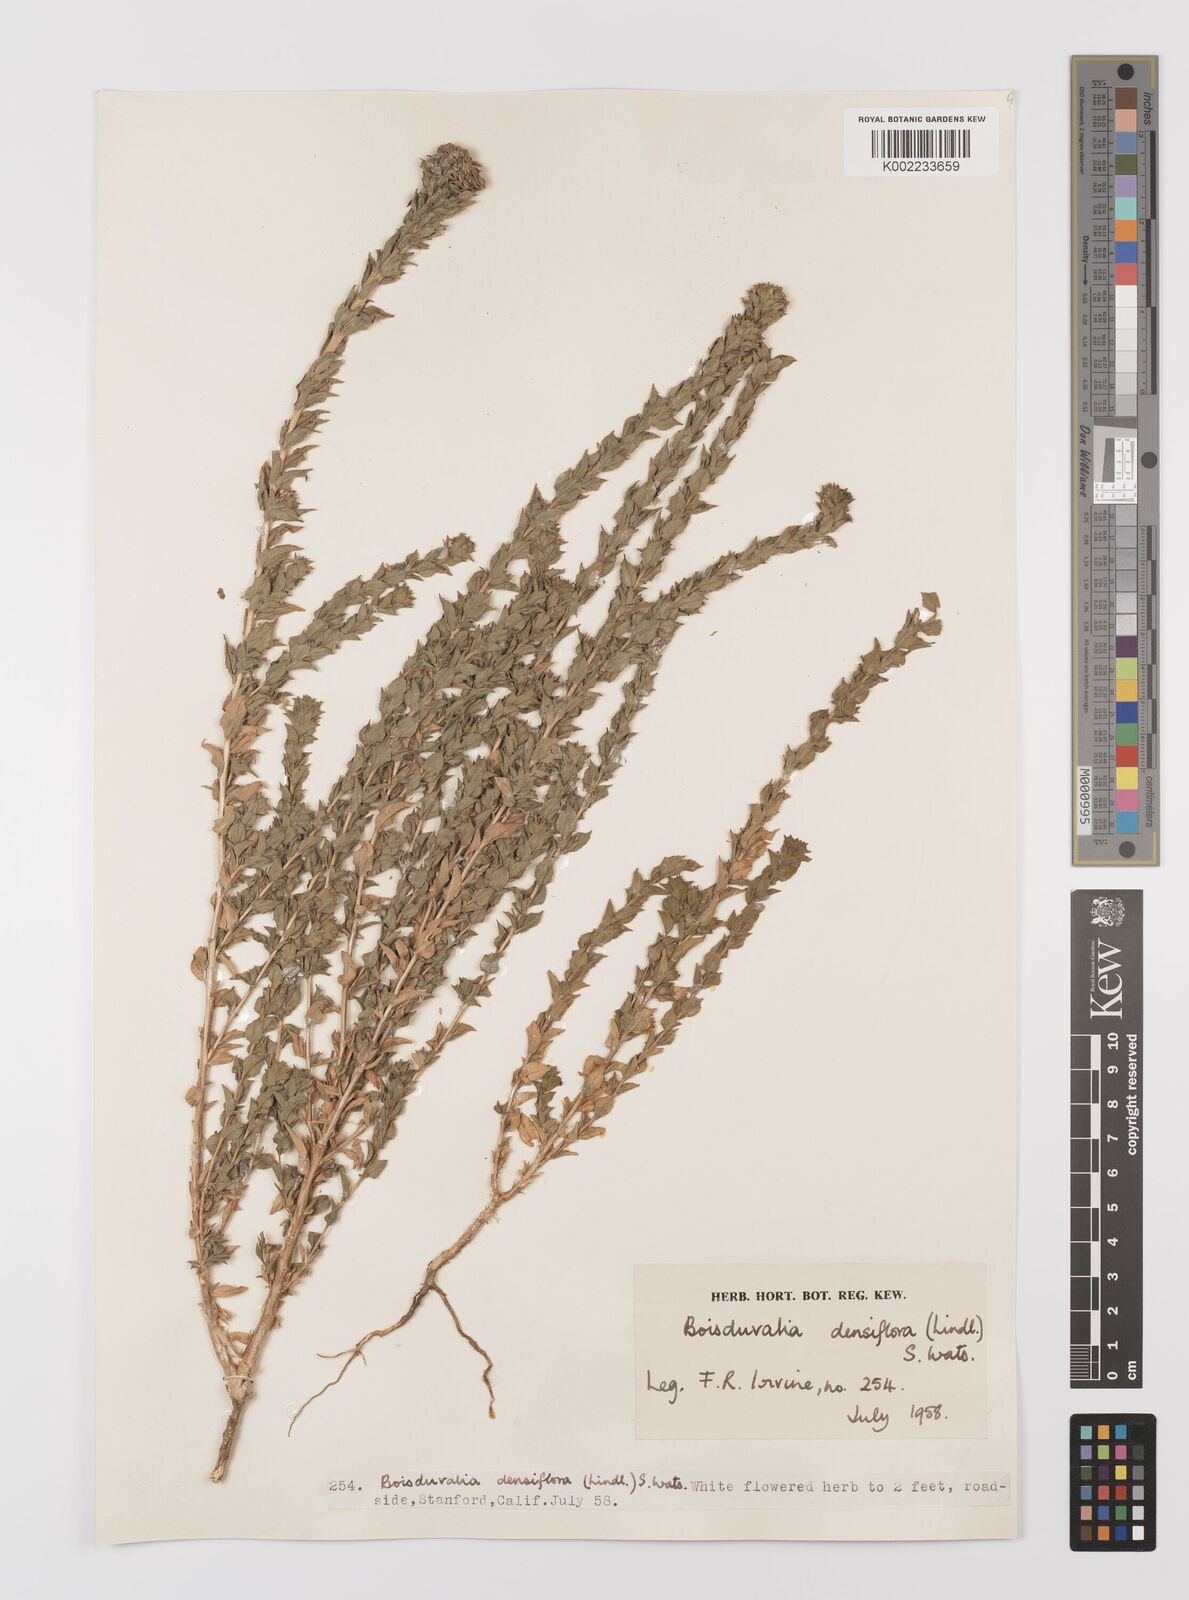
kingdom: Plantae
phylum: Tracheophyta
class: Magnoliopsida
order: Myrtales
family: Onagraceae
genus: Epilobium
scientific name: Epilobium densiflorum
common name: Dense spike-primrose
